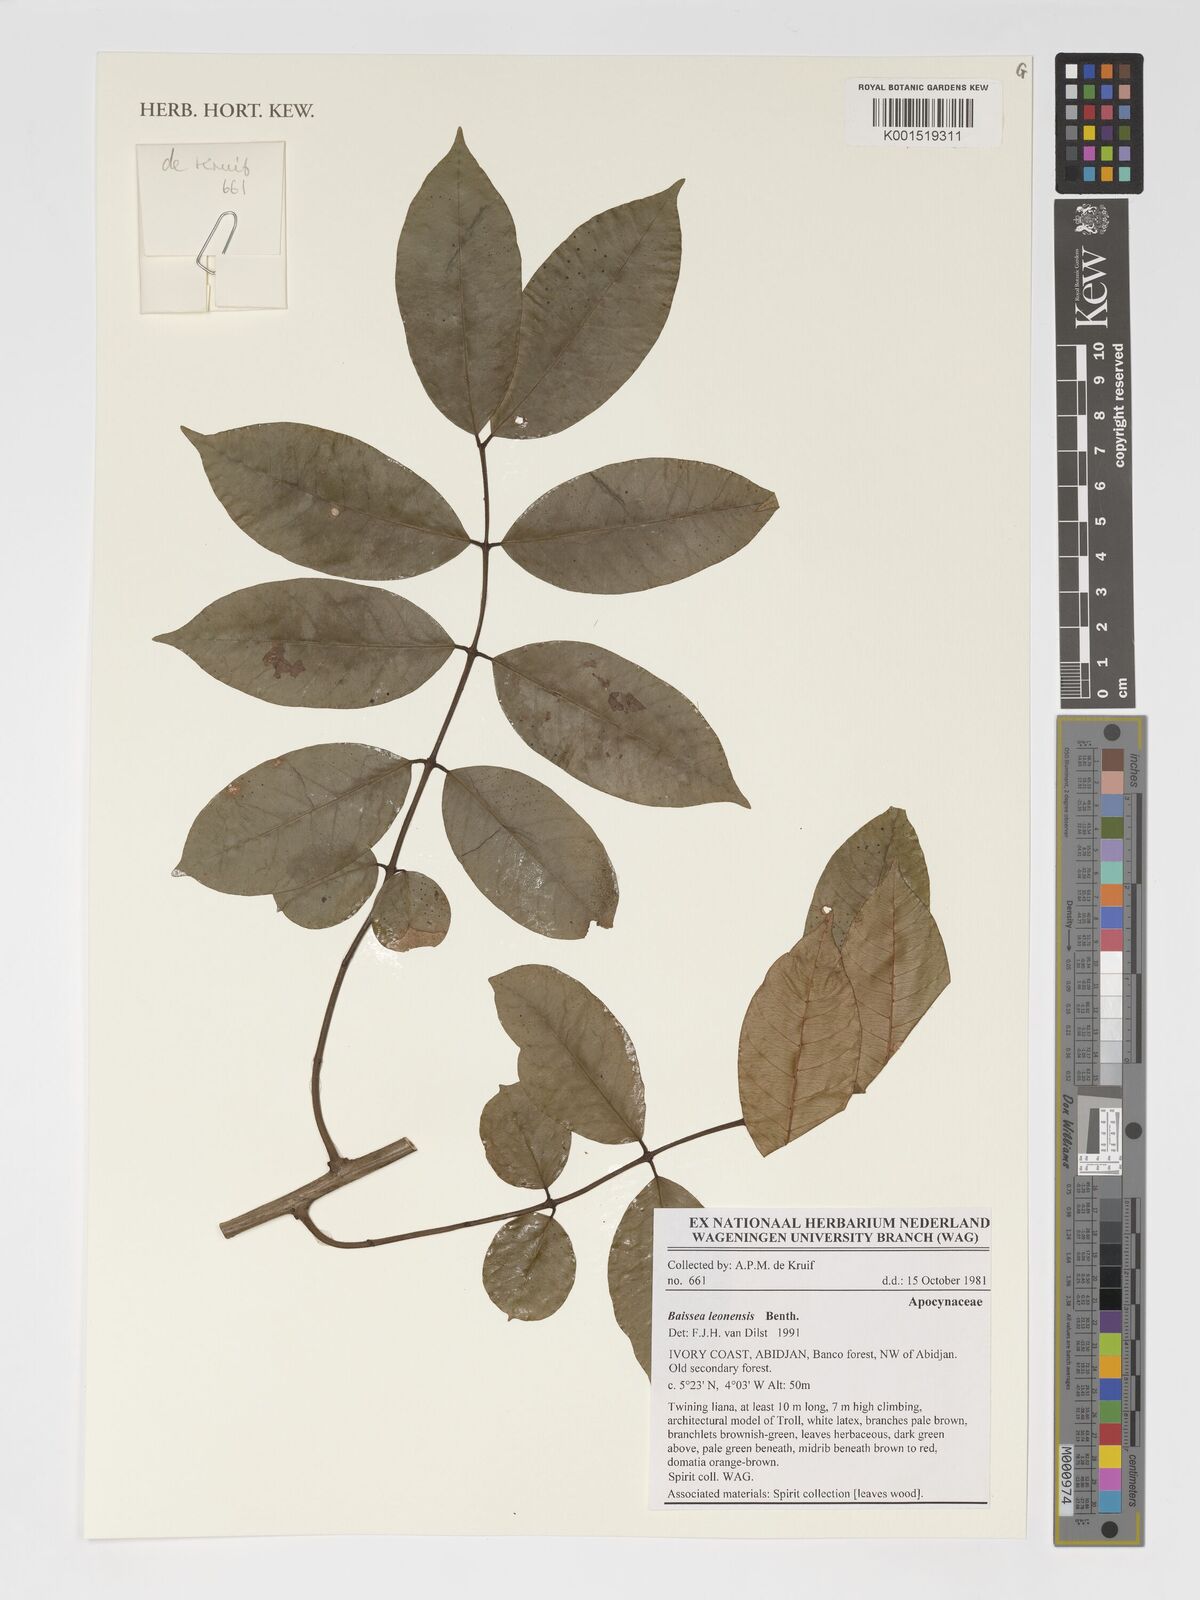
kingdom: Plantae
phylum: Tracheophyta
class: Magnoliopsida
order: Gentianales
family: Apocynaceae
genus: Baissea
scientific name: Baissea leonensis
